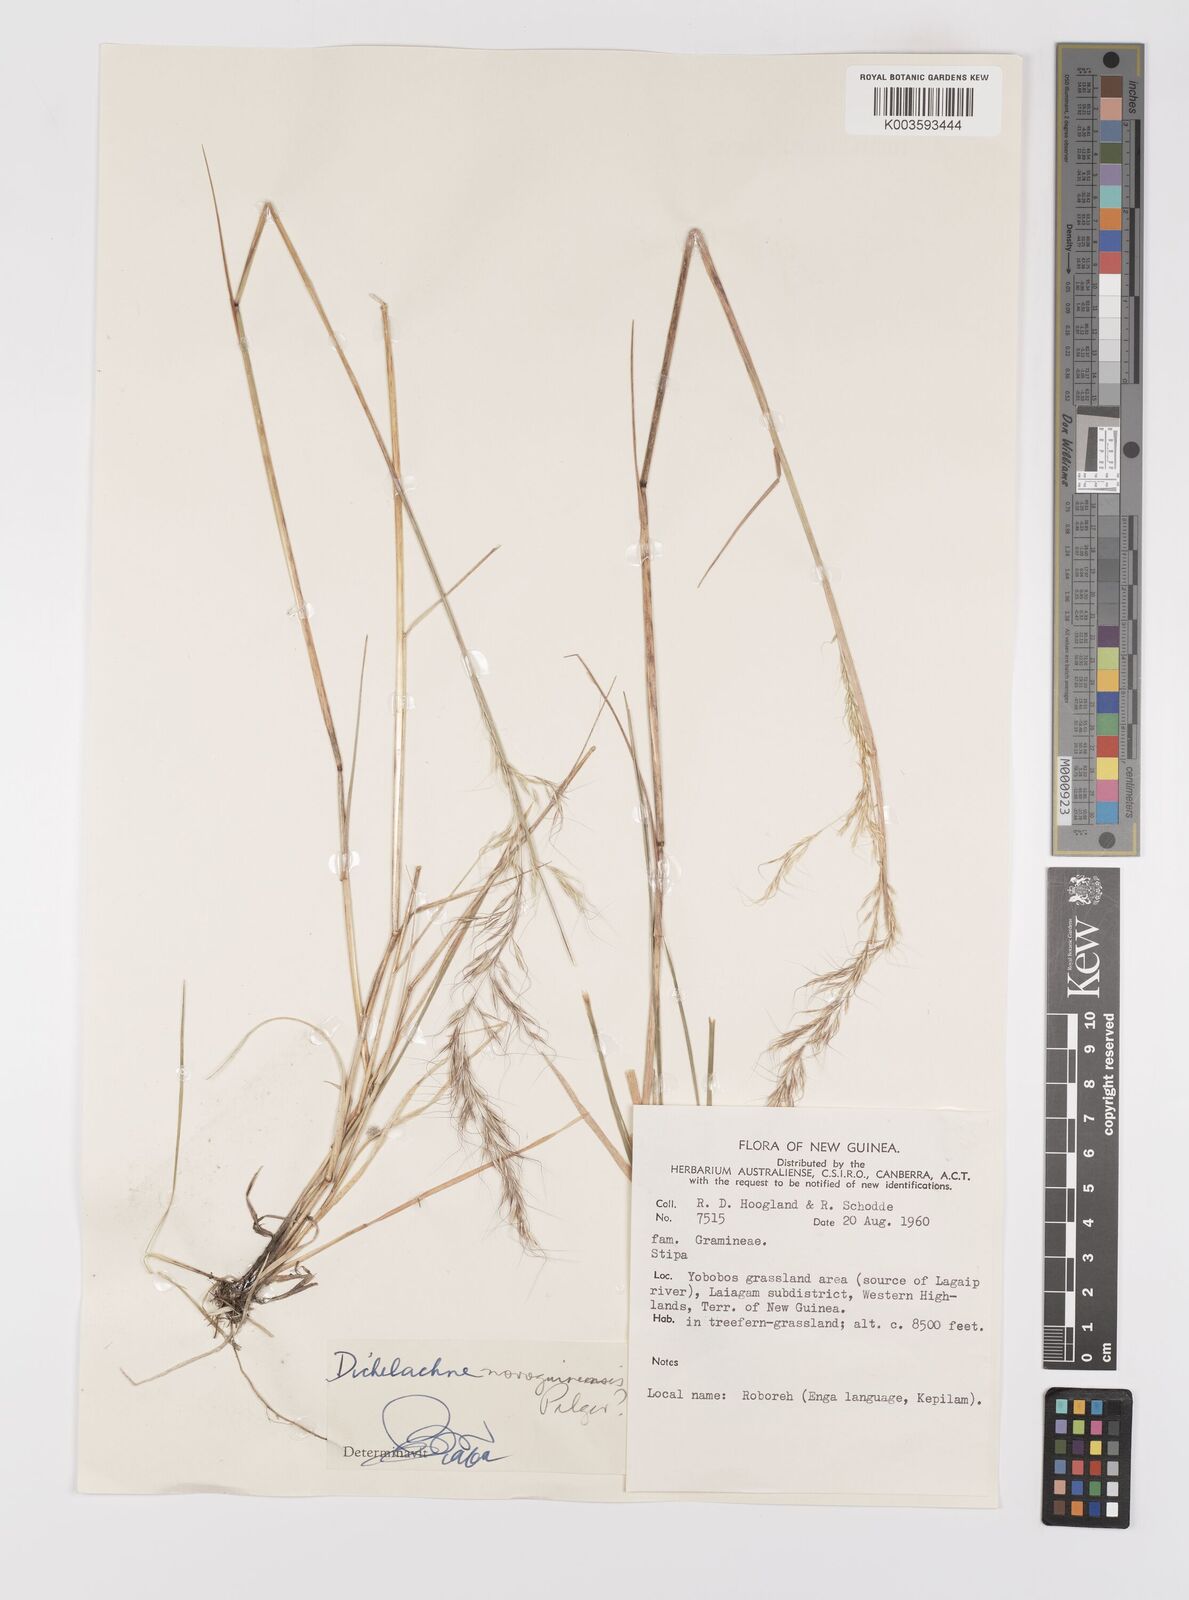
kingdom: Plantae
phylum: Tracheophyta
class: Liliopsida
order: Poales
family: Poaceae
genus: Dichelachne
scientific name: Dichelachne rara
